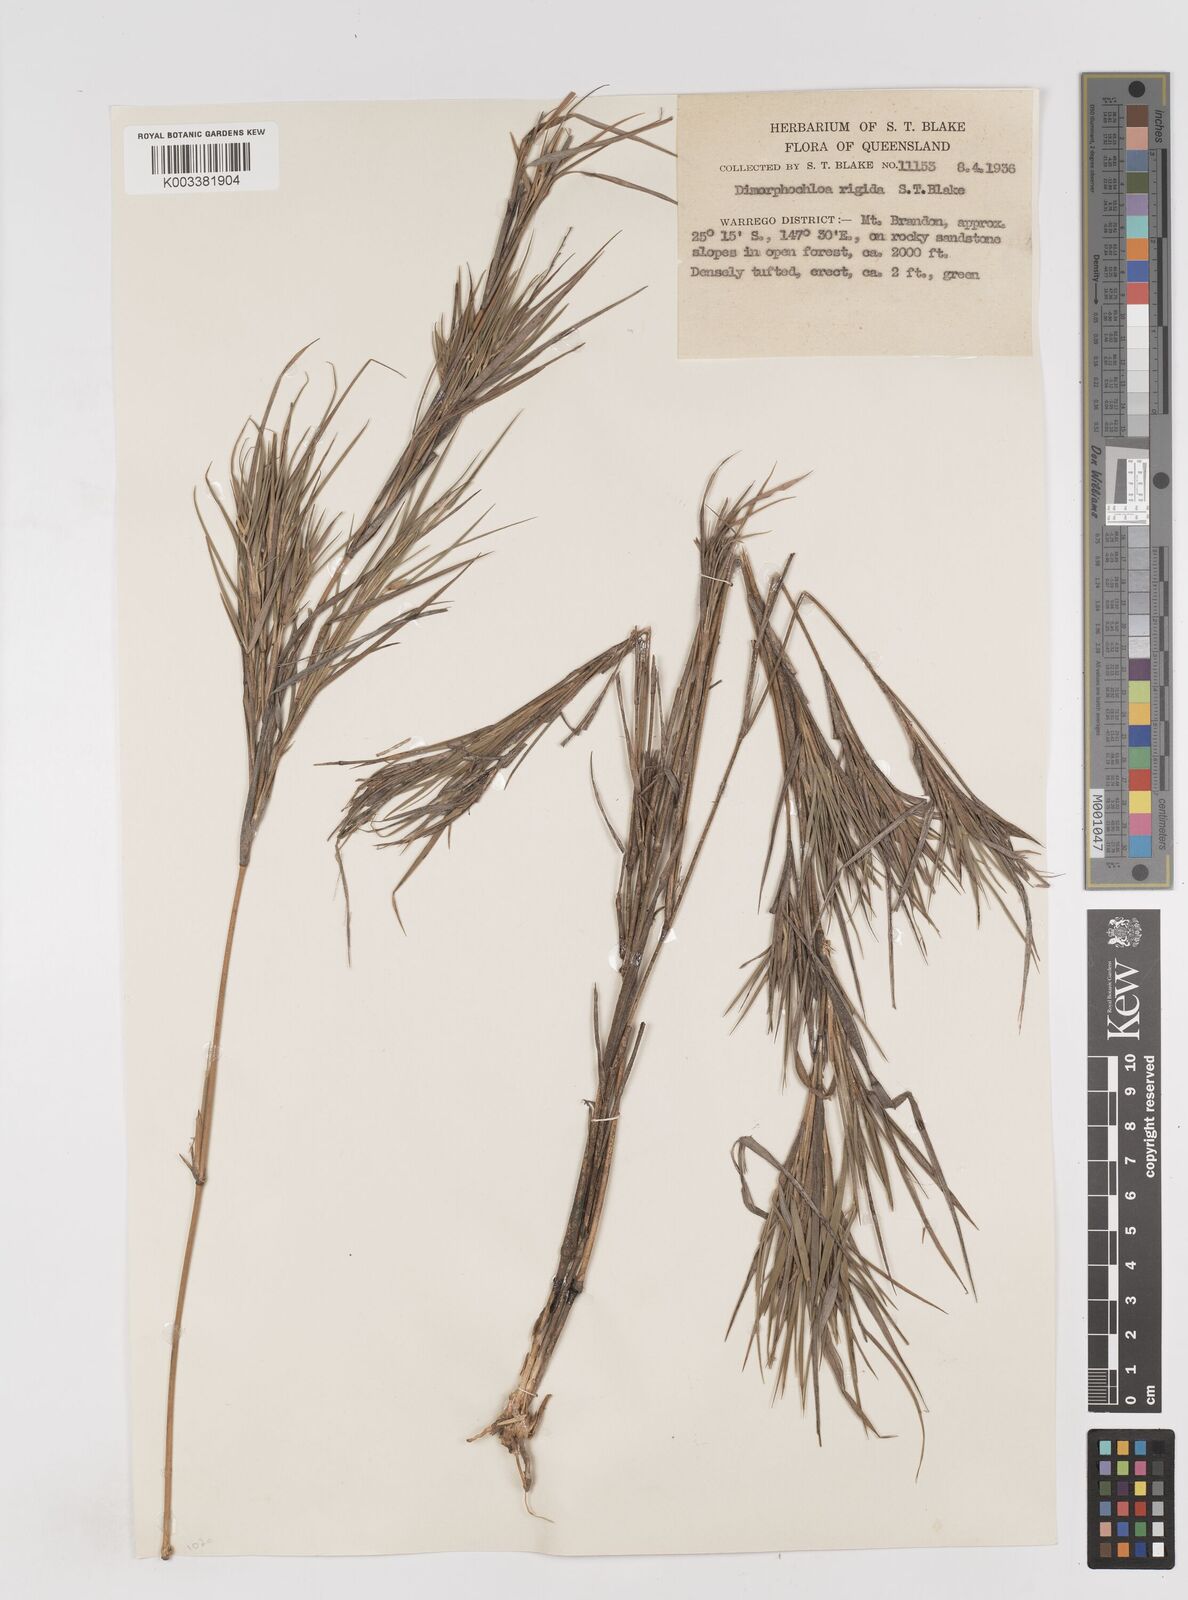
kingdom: Plantae
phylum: Tracheophyta
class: Liliopsida
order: Poales
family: Poaceae
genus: Dimorphochloa
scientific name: Dimorphochloa rigida
